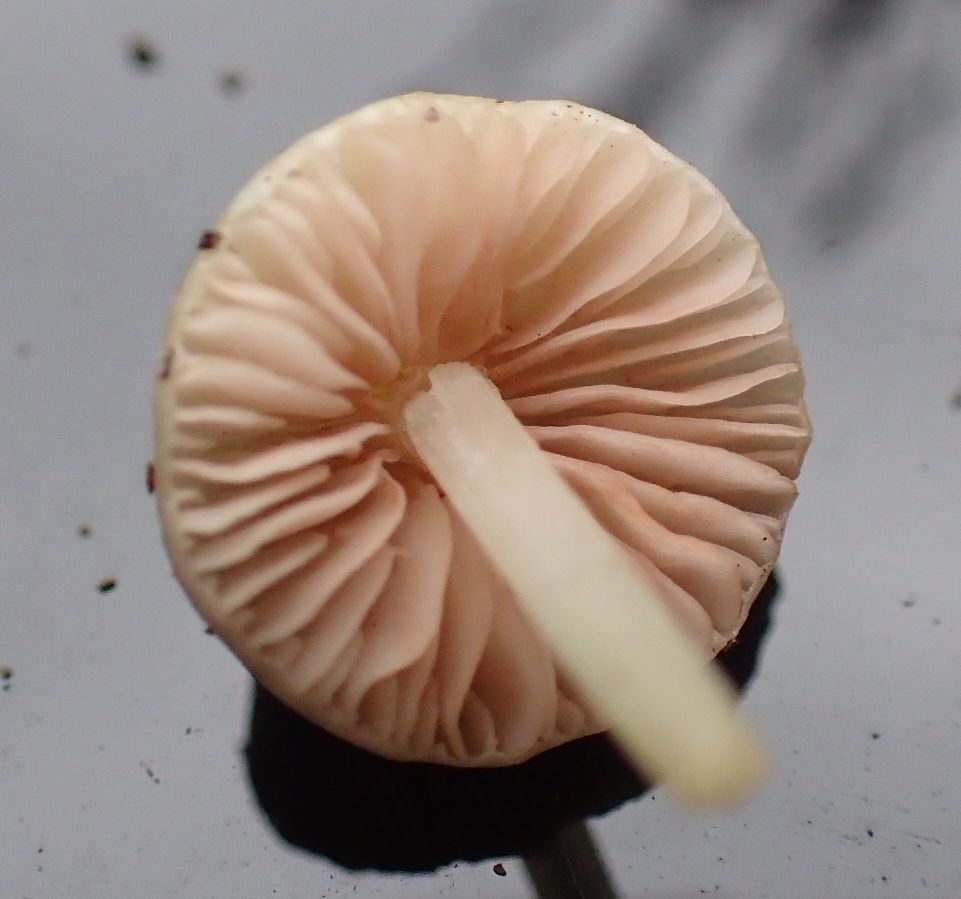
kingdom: Fungi
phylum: Basidiomycota
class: Agaricomycetes
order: Agaricales
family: Entolomataceae
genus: Entoloma
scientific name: Entoloma sericellum
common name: silkehvid rødblad
